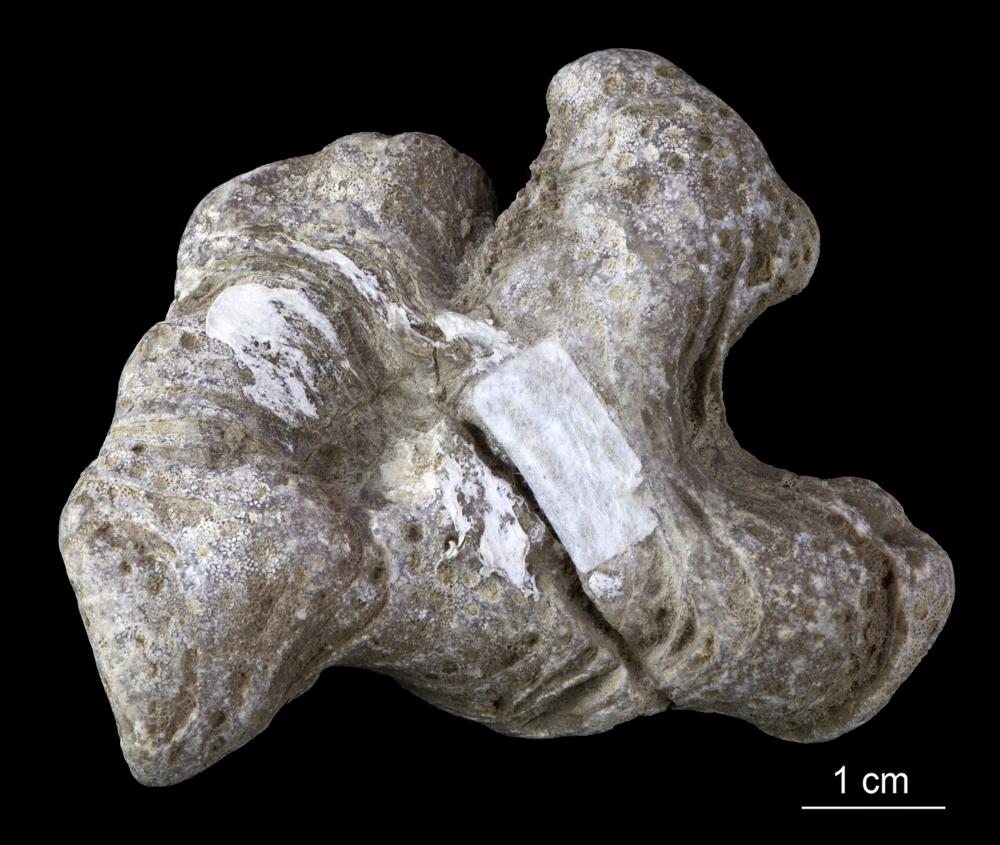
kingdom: Animalia
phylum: Cnidaria
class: Anthozoa
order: Heliolitina
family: Heliolitidae
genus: Heliolites
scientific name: Heliolites
